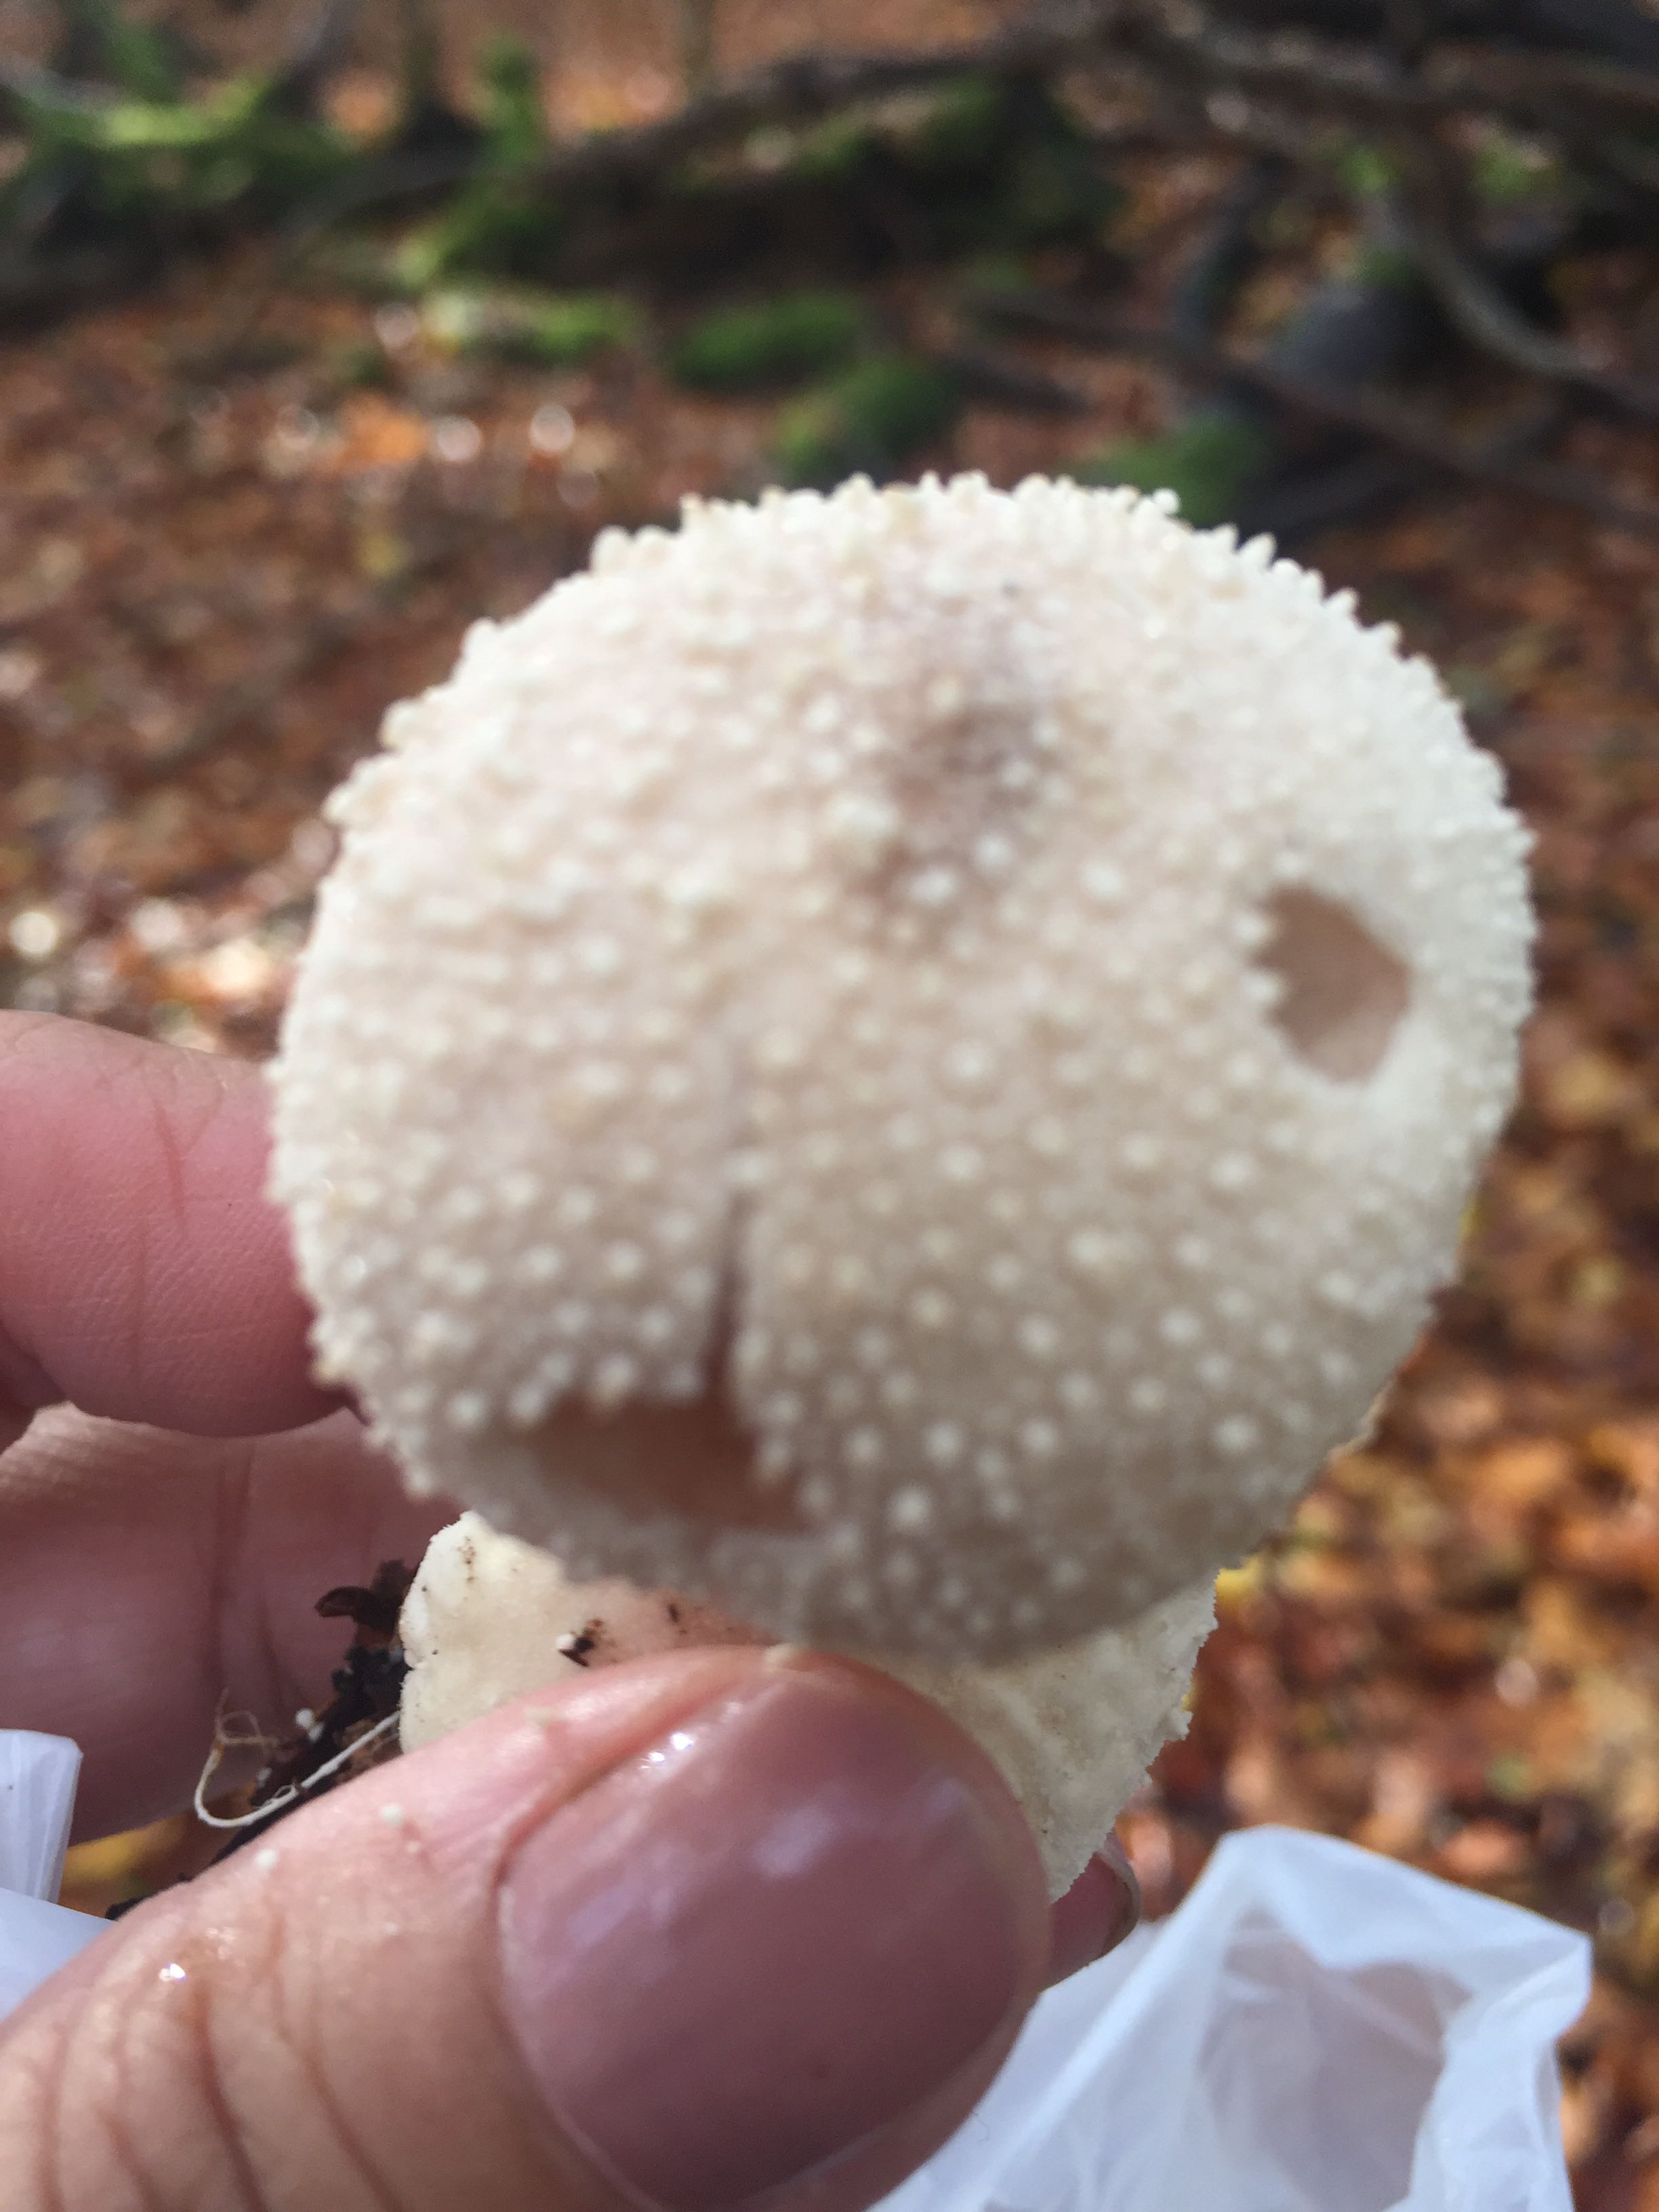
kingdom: Fungi
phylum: Basidiomycota
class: Agaricomycetes
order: Agaricales
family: Lycoperdaceae
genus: Lycoperdon
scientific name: Lycoperdon perlatum
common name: krystal-støvbold
